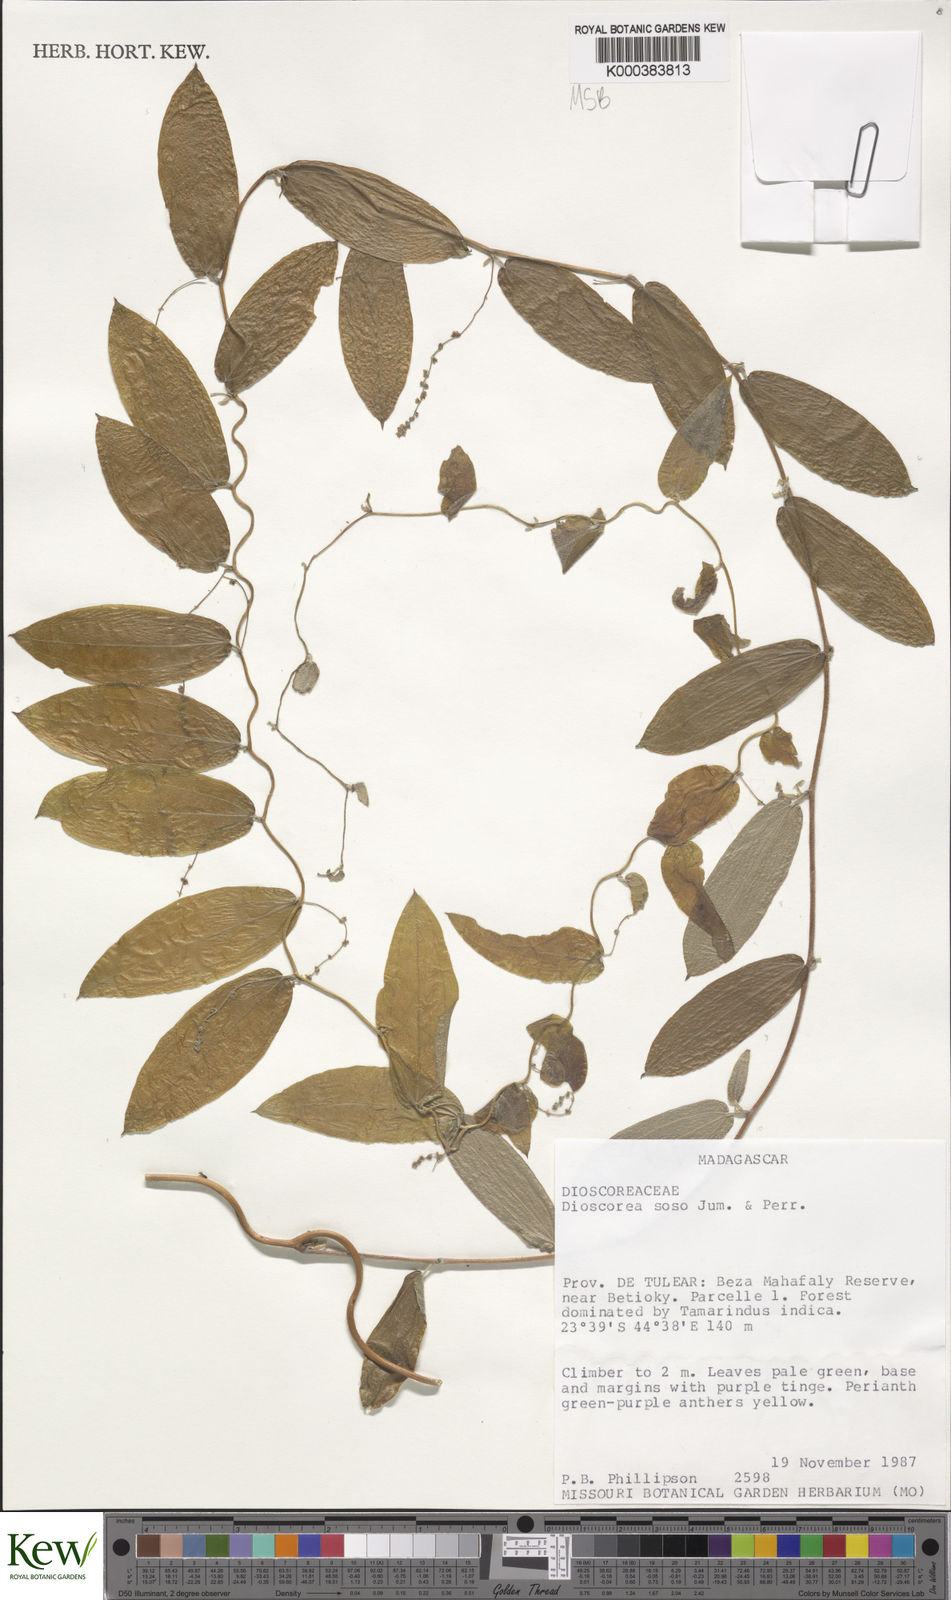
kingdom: Plantae
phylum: Tracheophyta
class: Liliopsida
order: Dioscoreales
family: Dioscoreaceae
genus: Dioscorea
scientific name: Dioscorea soso
